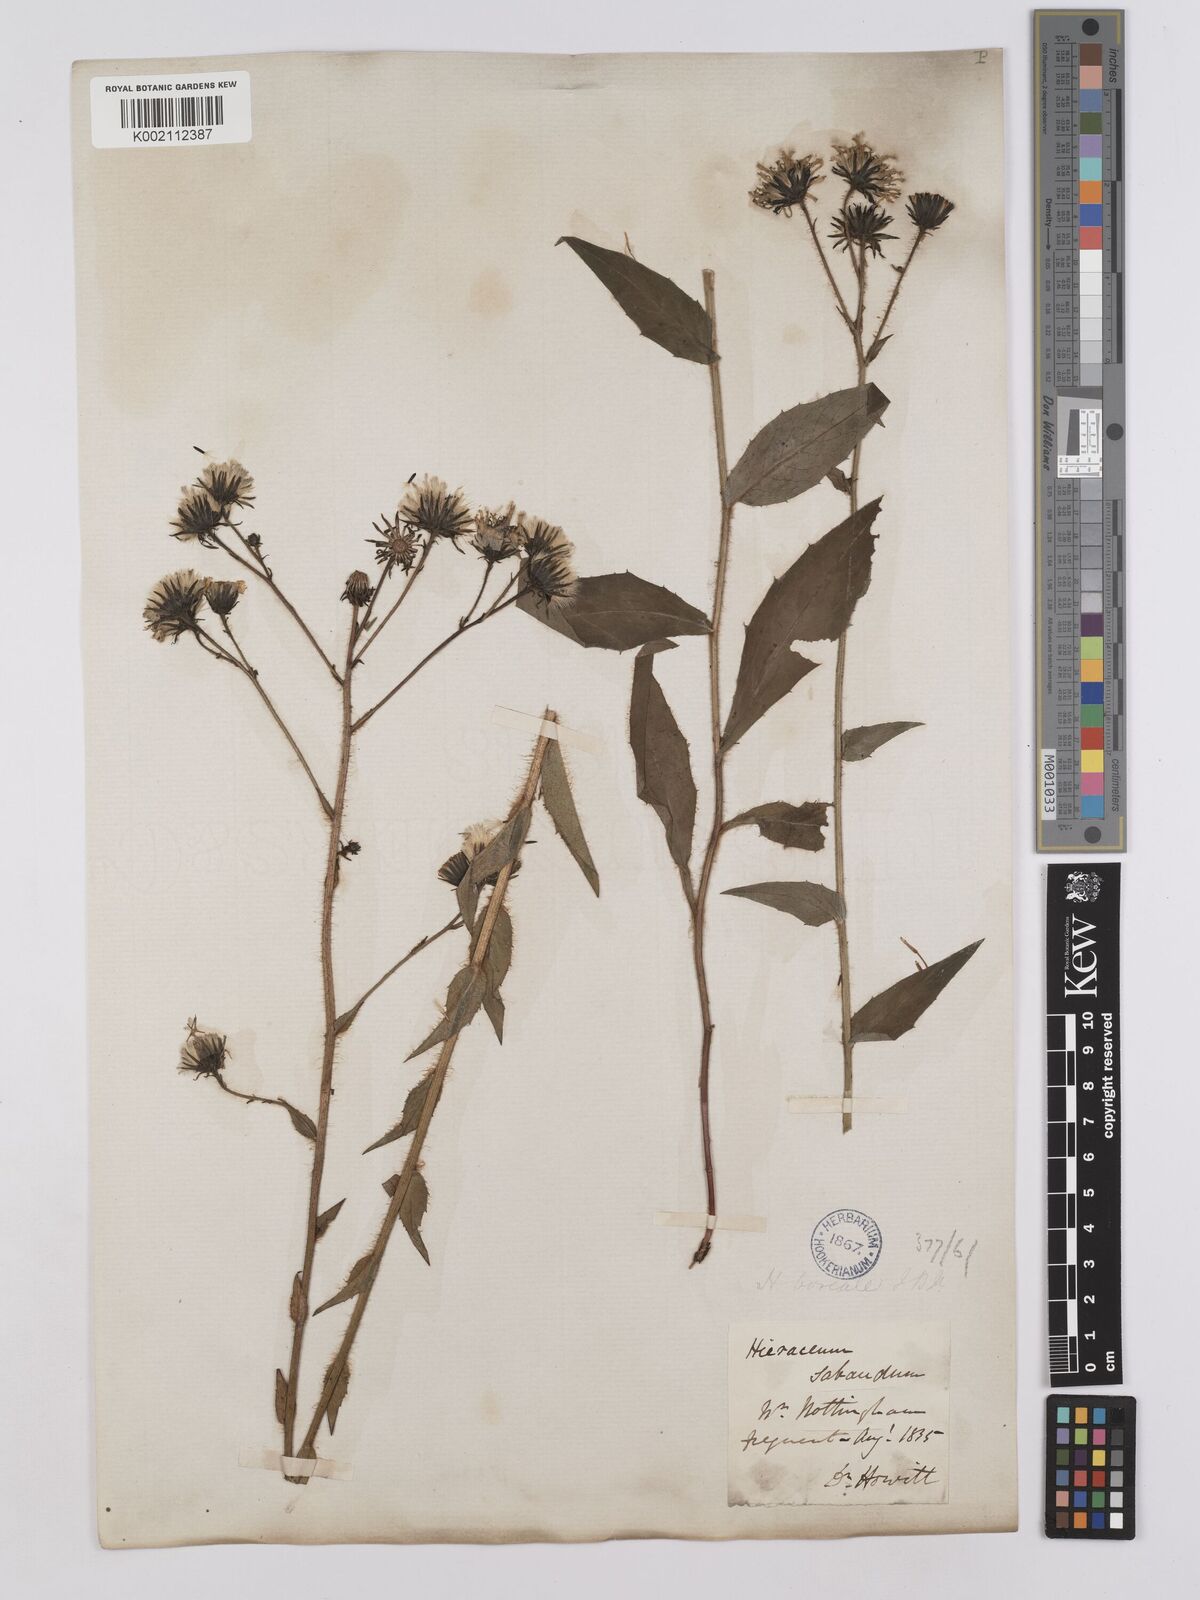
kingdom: Plantae
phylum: Tracheophyta
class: Magnoliopsida
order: Asterales
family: Asteraceae
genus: Hieracium
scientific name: Hieracium sabaudum
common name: New england hawkweed
